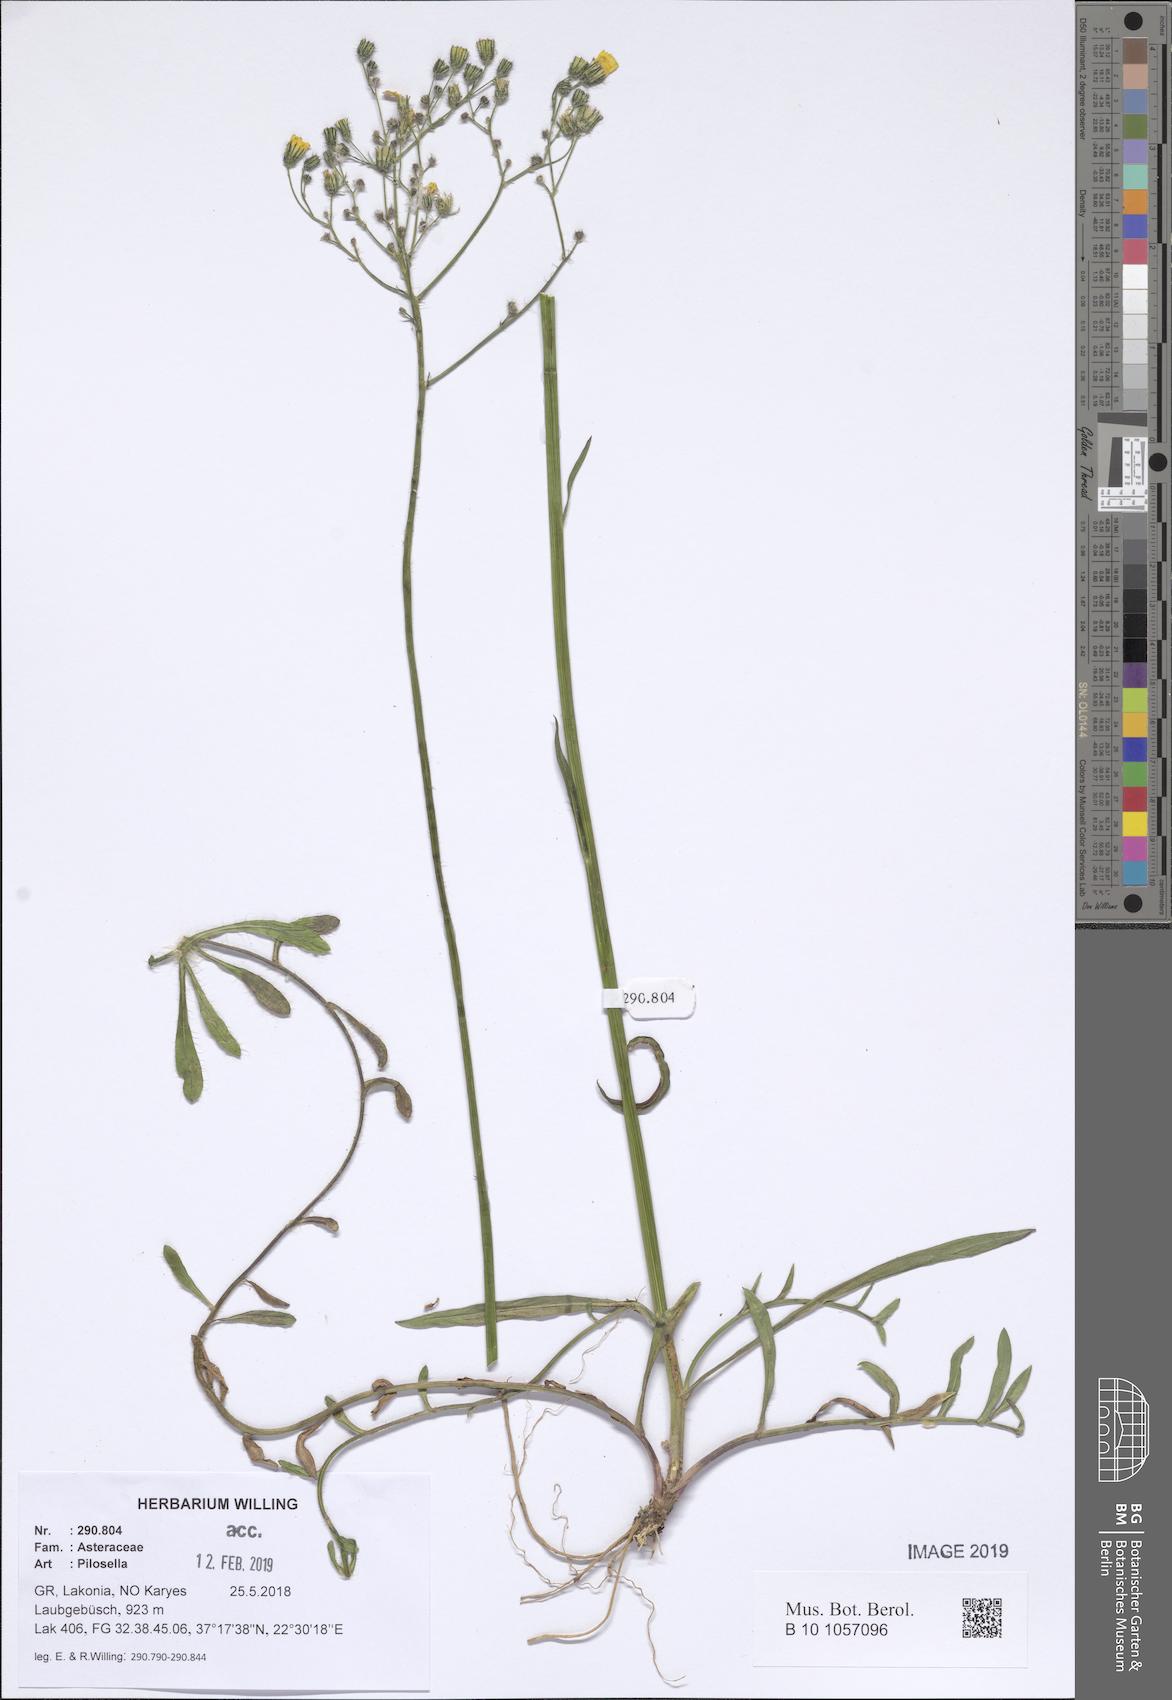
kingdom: Plantae
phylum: Tracheophyta
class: Magnoliopsida
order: Asterales
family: Asteraceae
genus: Pilosella
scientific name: Pilosella
